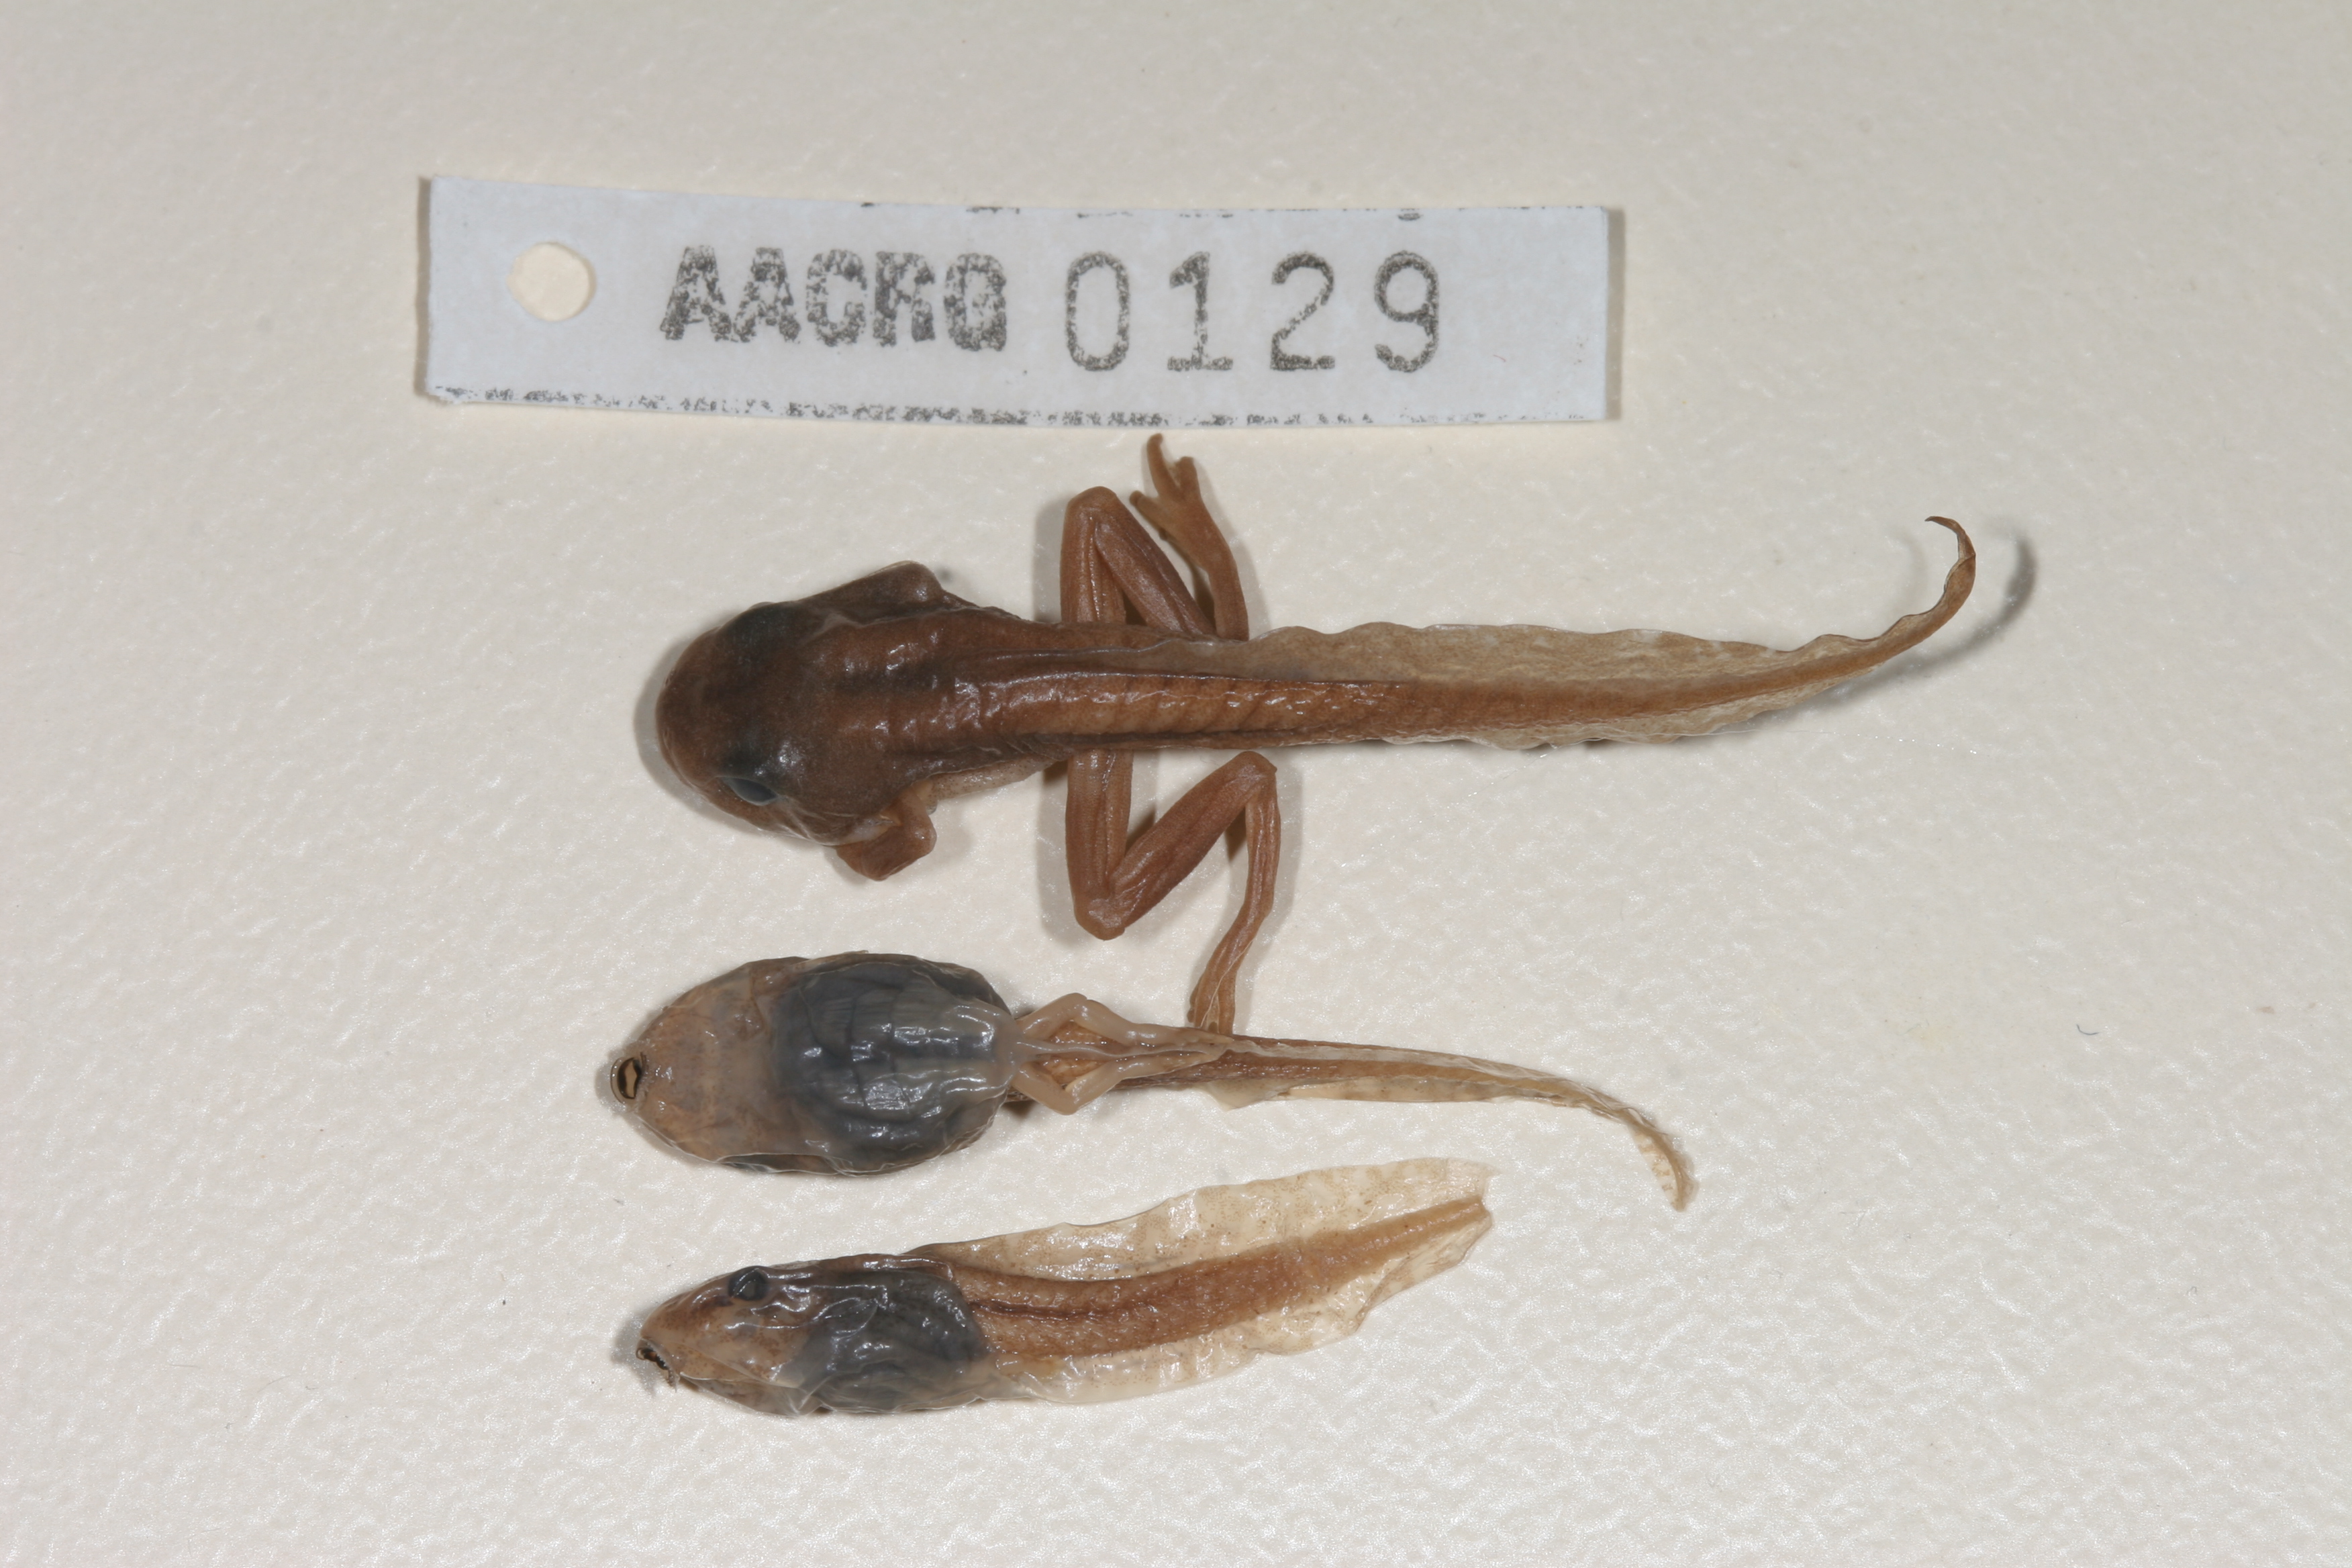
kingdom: Animalia
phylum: Chordata
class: Amphibia
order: Anura
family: Hyperoliidae
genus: Hyperolius
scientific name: Hyperolius semidiscus
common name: Yellow-striped reed frog
